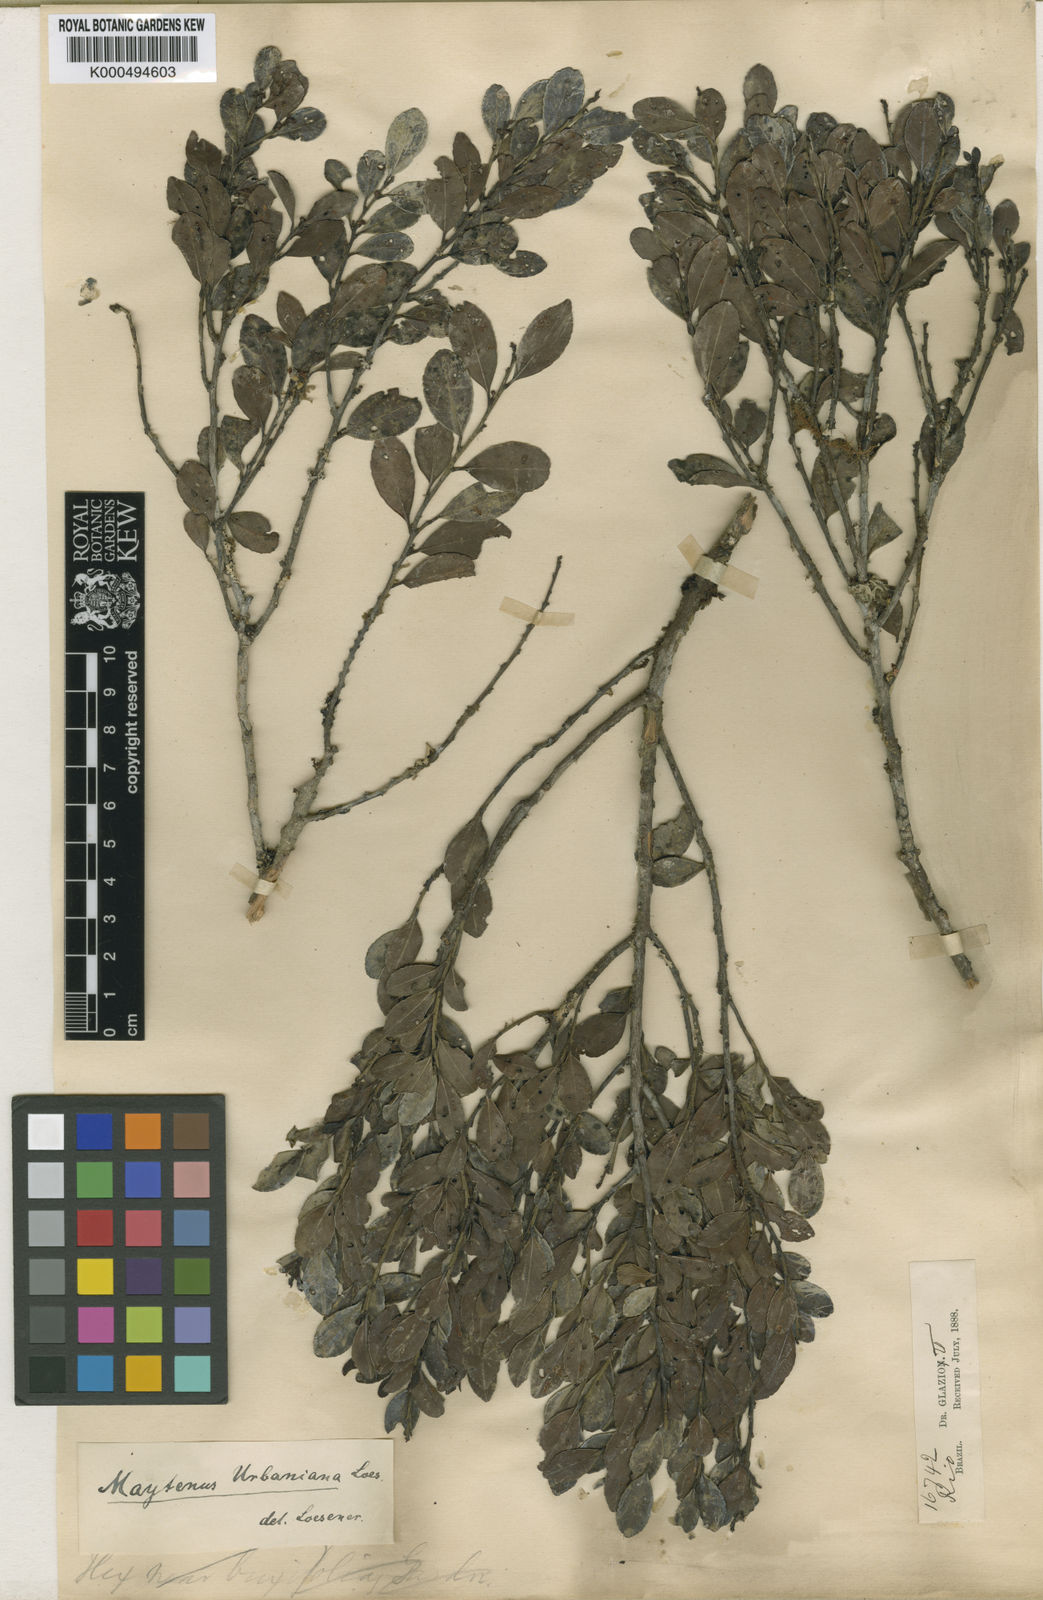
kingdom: Plantae
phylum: Tracheophyta
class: Magnoliopsida
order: Celastrales
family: Celastraceae
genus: Monteverdia
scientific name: Monteverdia urbaniana
